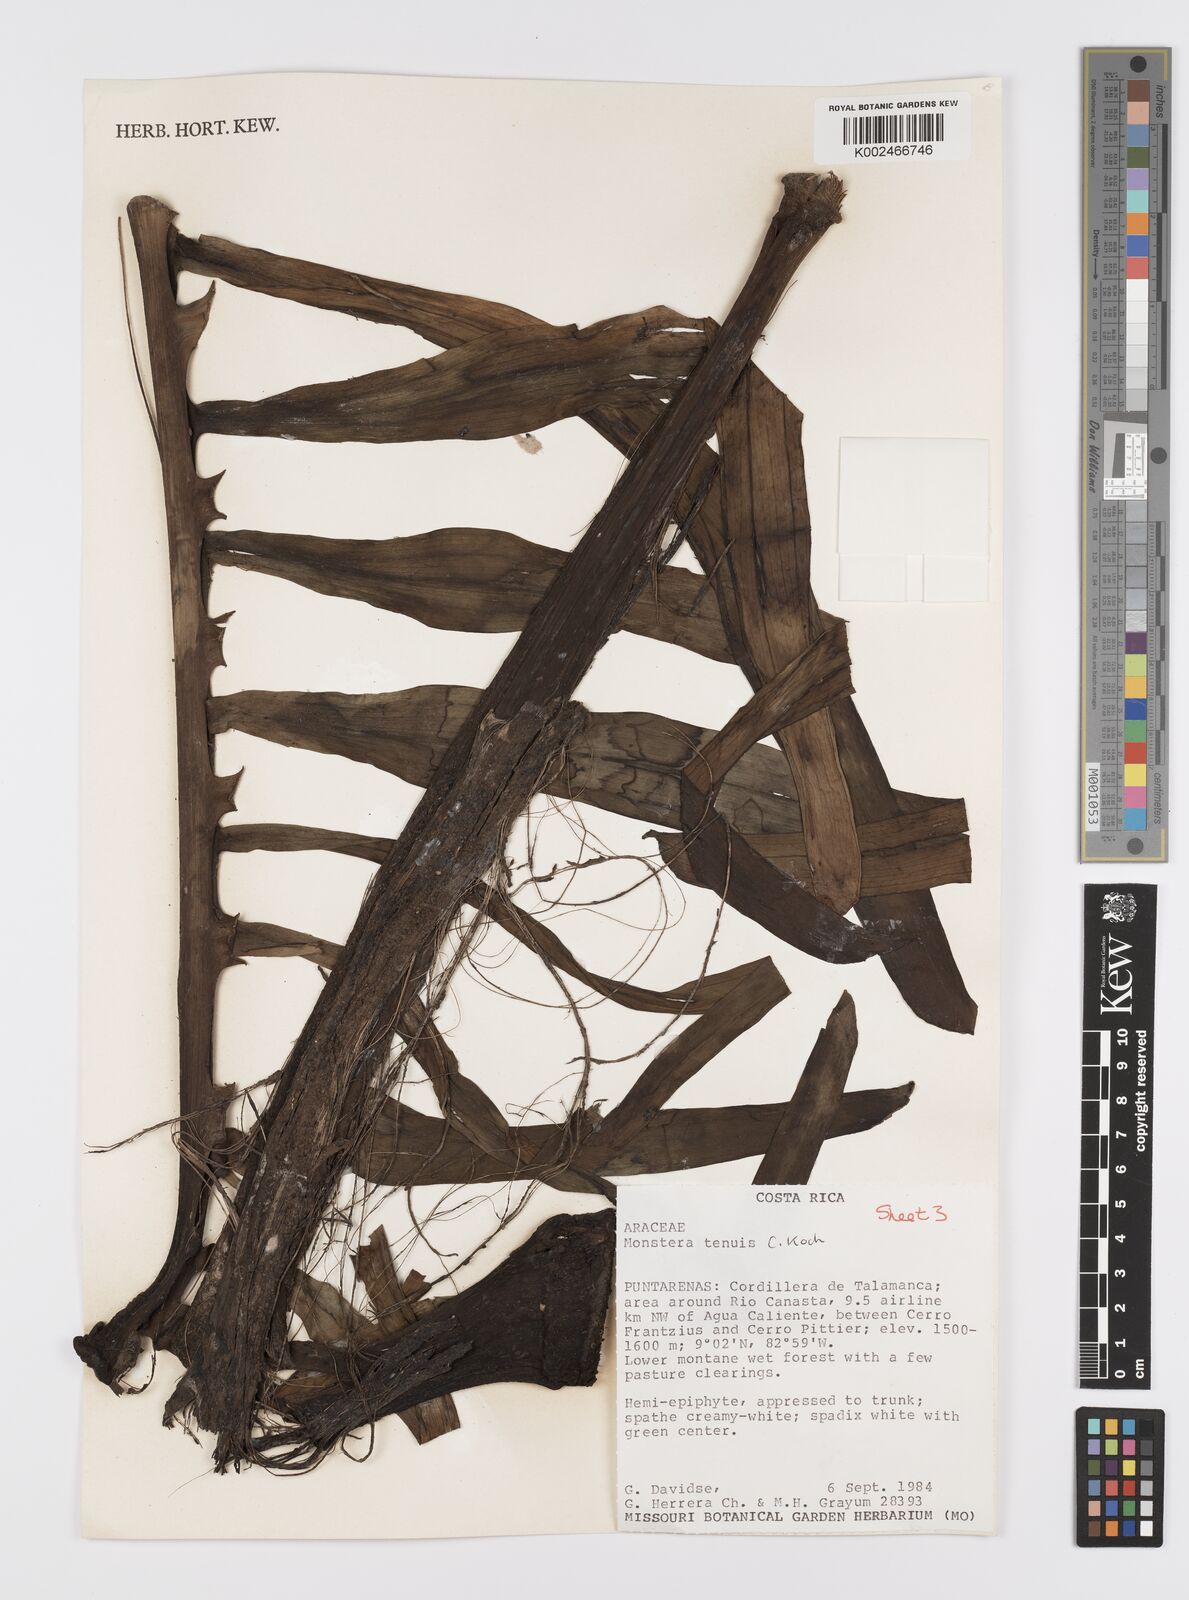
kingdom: Plantae
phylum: Tracheophyta
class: Liliopsida
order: Alismatales
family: Araceae
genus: Monstera
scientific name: Monstera tenuis
